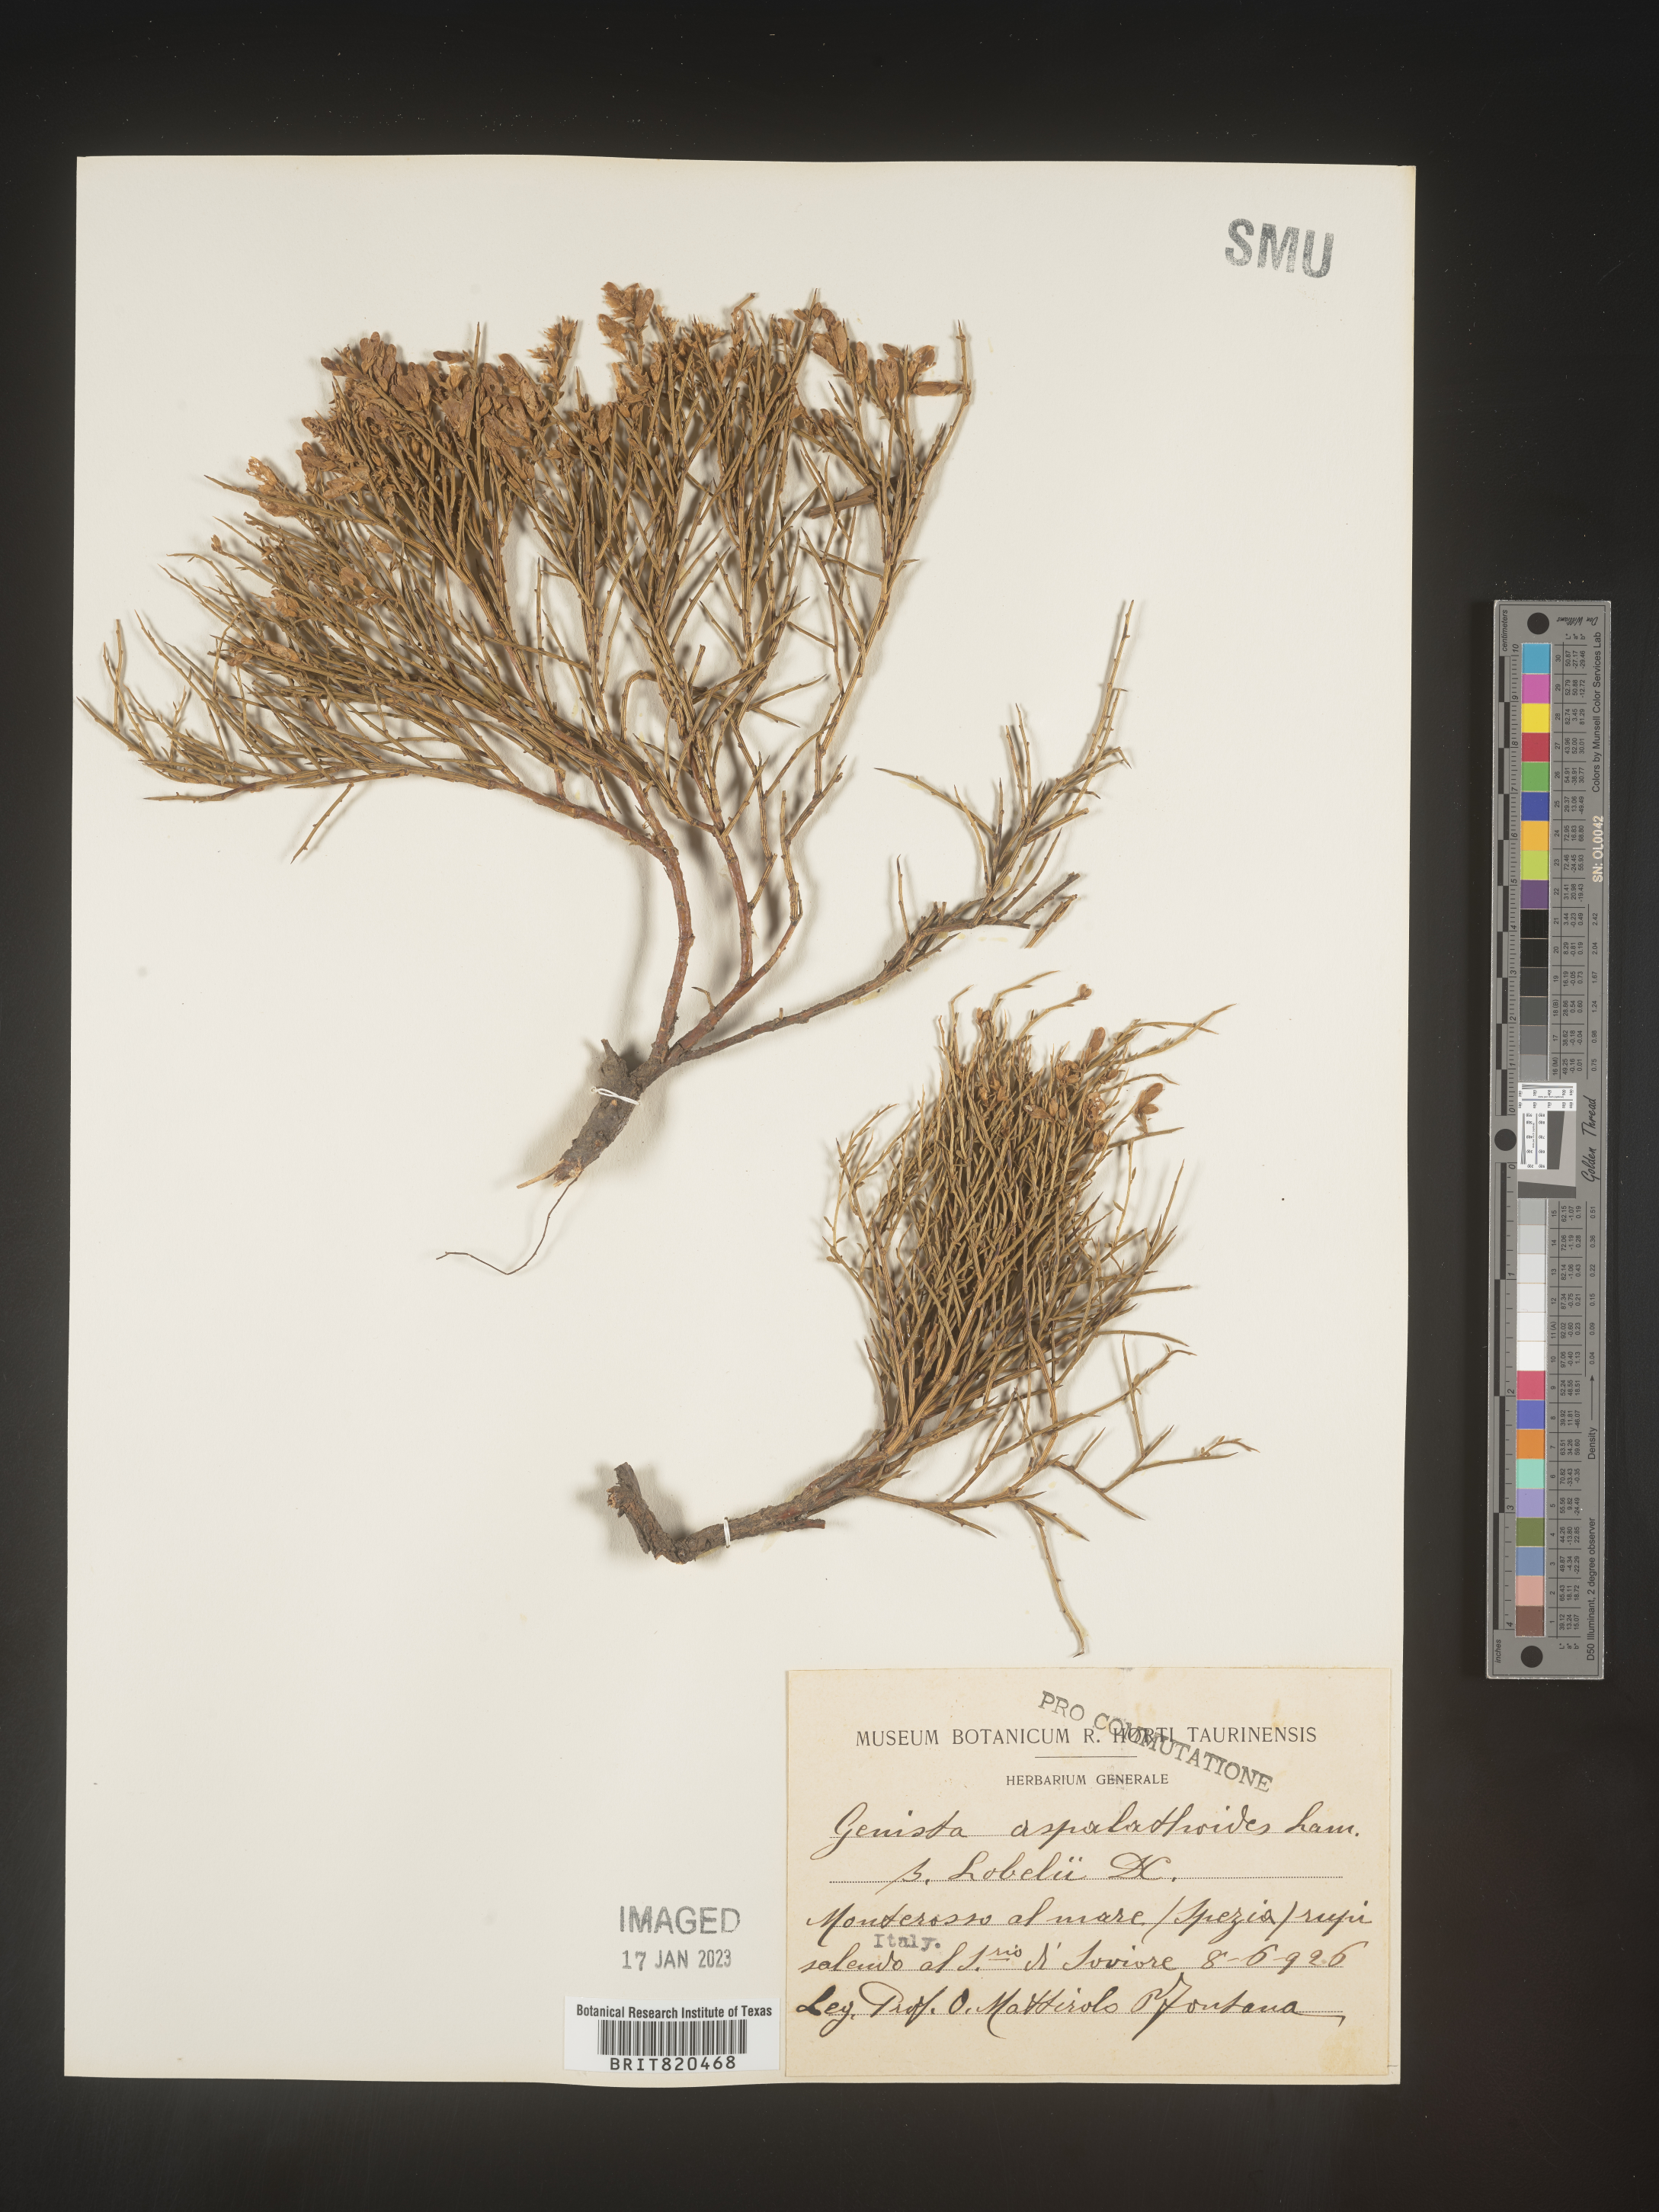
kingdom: Plantae
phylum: Tracheophyta
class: Magnoliopsida
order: Fabales
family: Fabaceae
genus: Genista
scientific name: Genista
